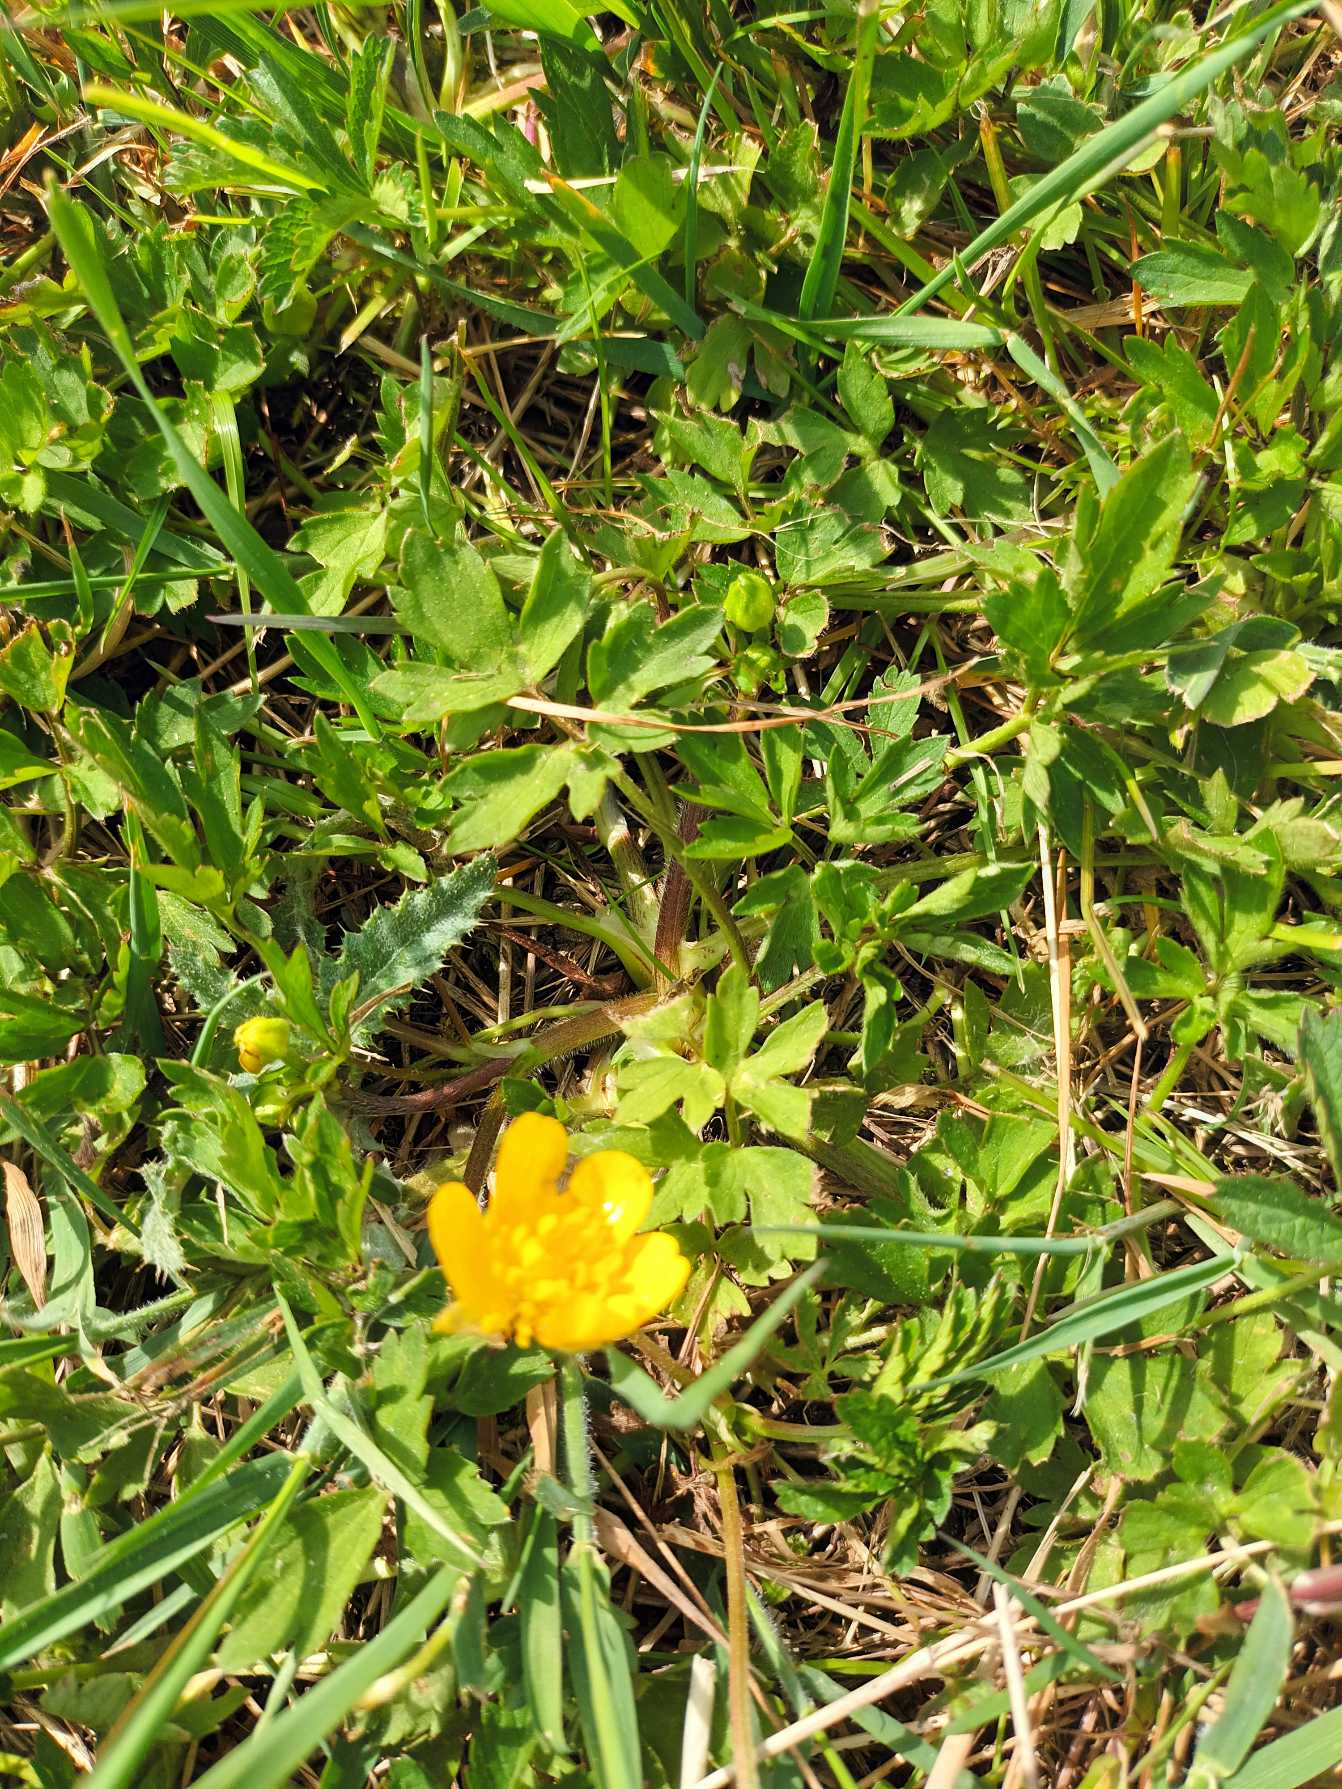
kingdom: Plantae
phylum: Tracheophyta
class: Magnoliopsida
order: Ranunculales
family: Ranunculaceae
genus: Ranunculus
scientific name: Ranunculus repens
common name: Lav ranunkel
